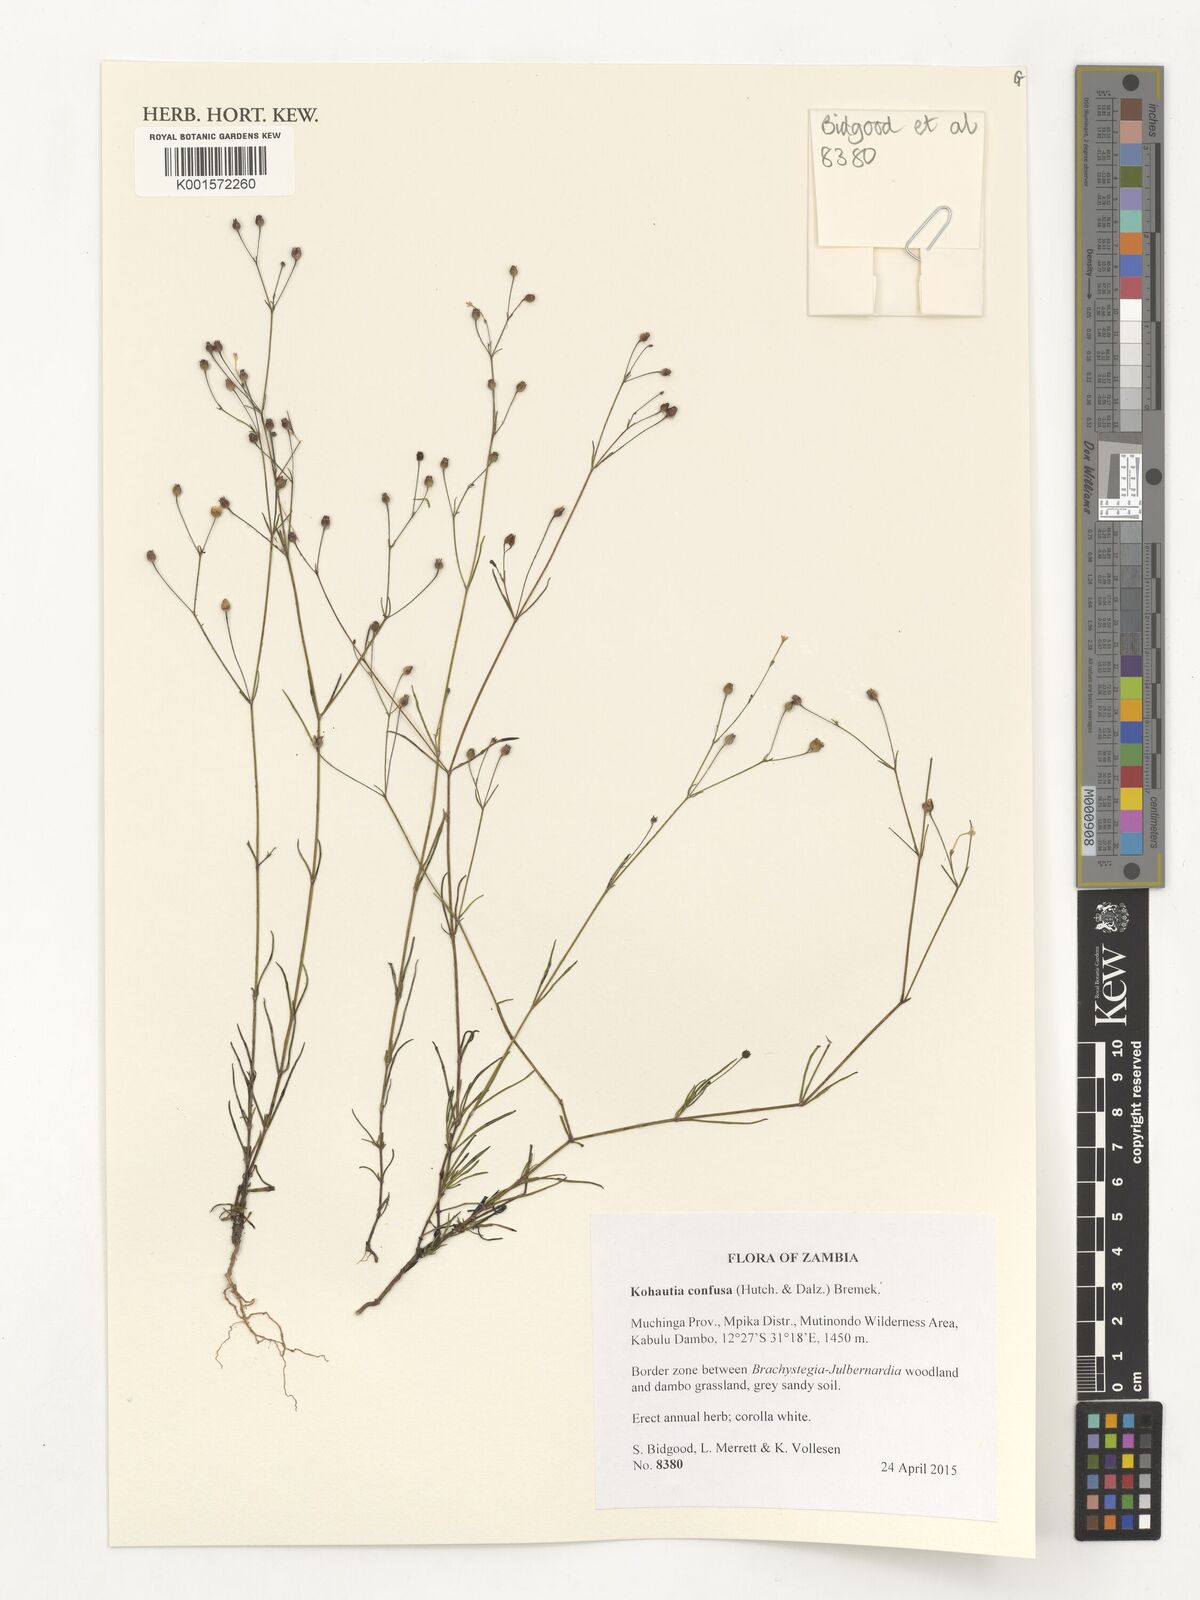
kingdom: Plantae
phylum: Tracheophyta
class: Magnoliopsida
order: Gentianales
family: Rubiaceae
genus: Kohautia
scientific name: Kohautia confusa
